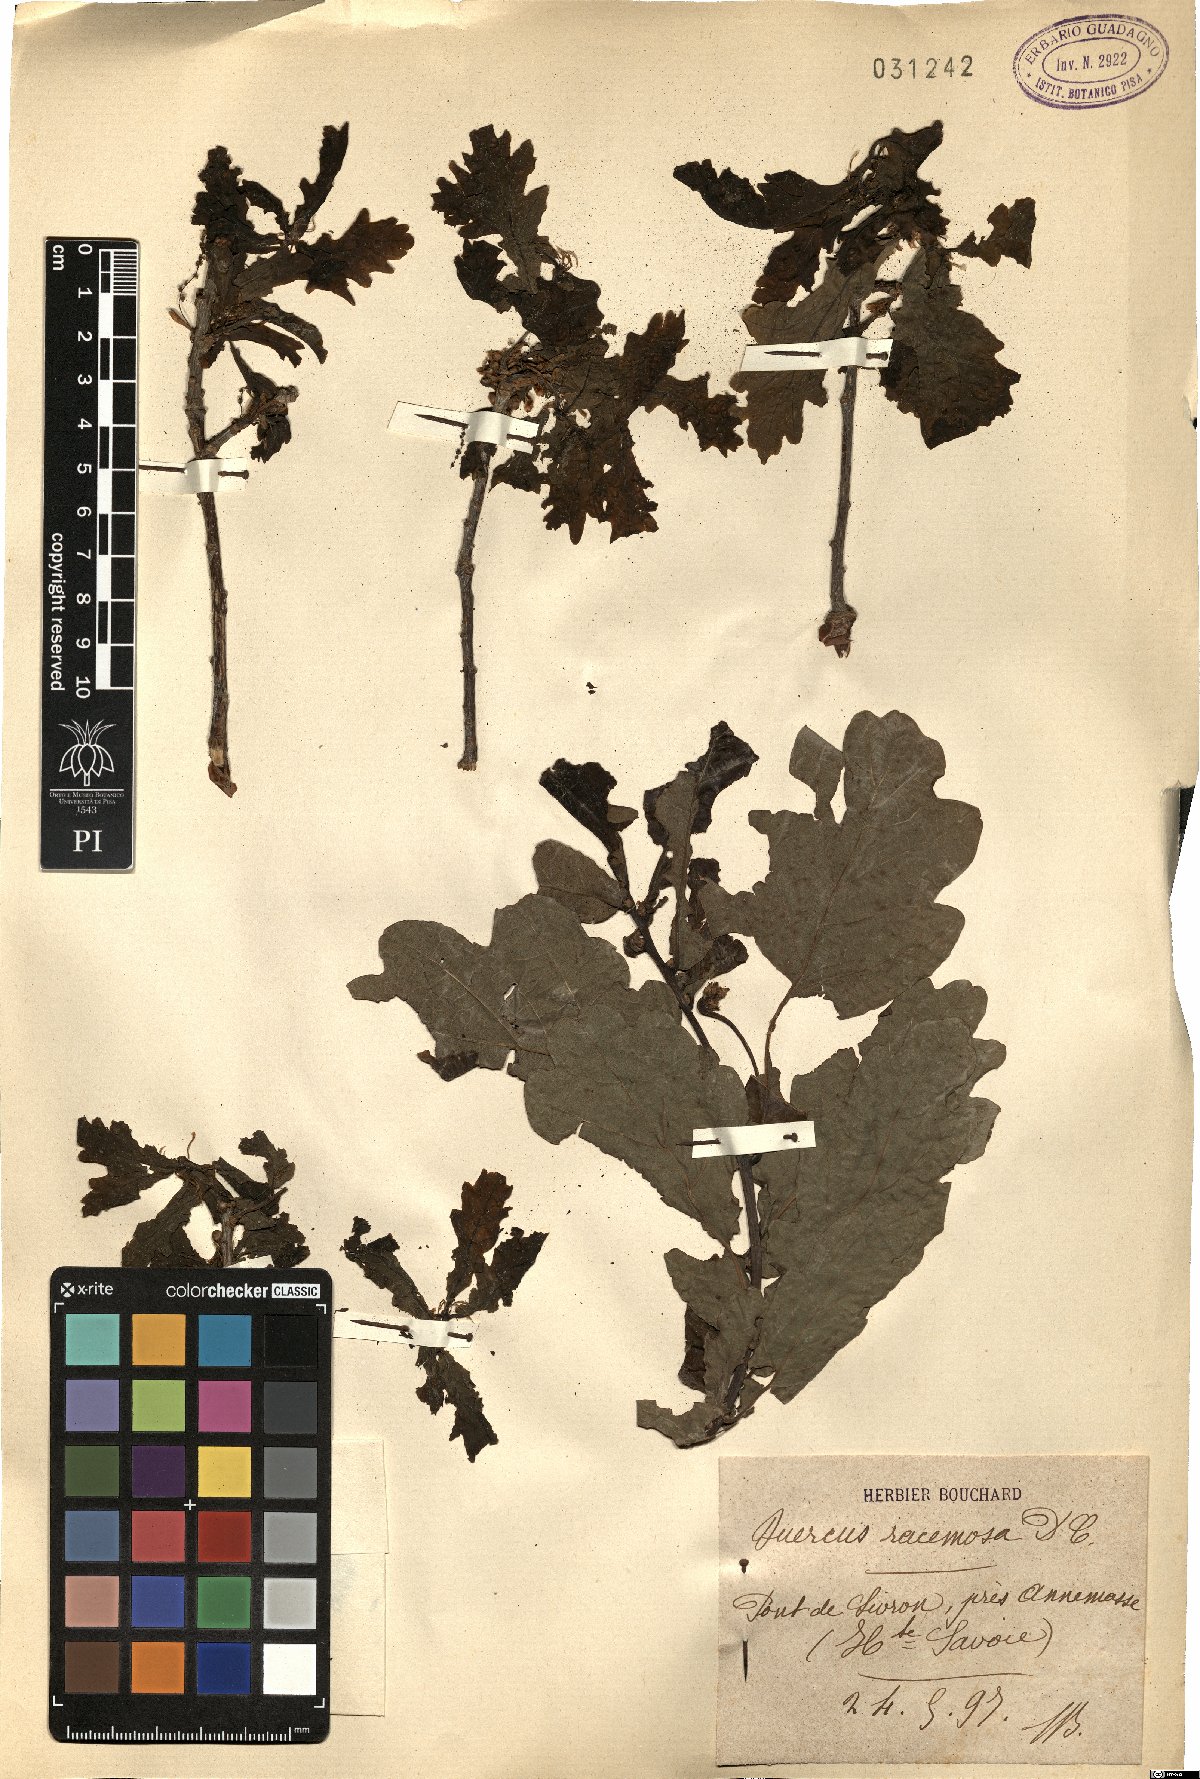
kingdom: Plantae
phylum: Tracheophyta
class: Magnoliopsida
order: Fagales
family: Fagaceae
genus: Quercus
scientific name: Quercus robur
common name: Pedunculate oak
